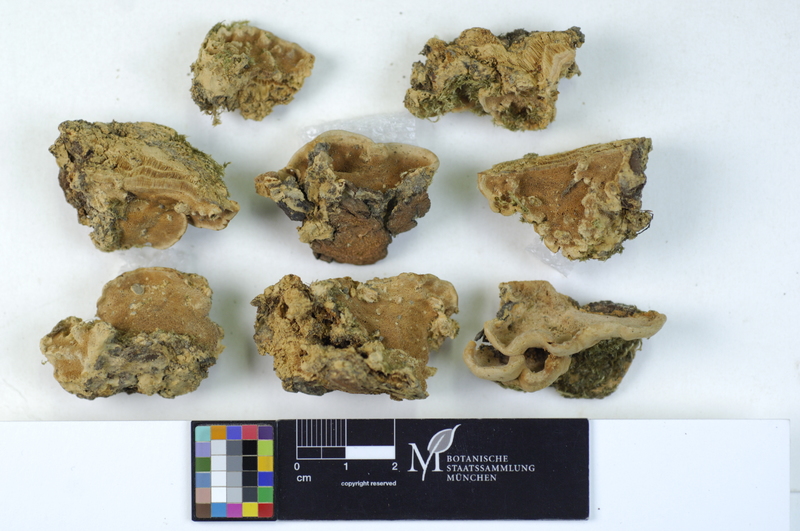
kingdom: Plantae
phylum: Tracheophyta
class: Magnoliopsida
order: Malpighiales
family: Salicaceae
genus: Populus
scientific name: Populus nigra
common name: Black poplar
